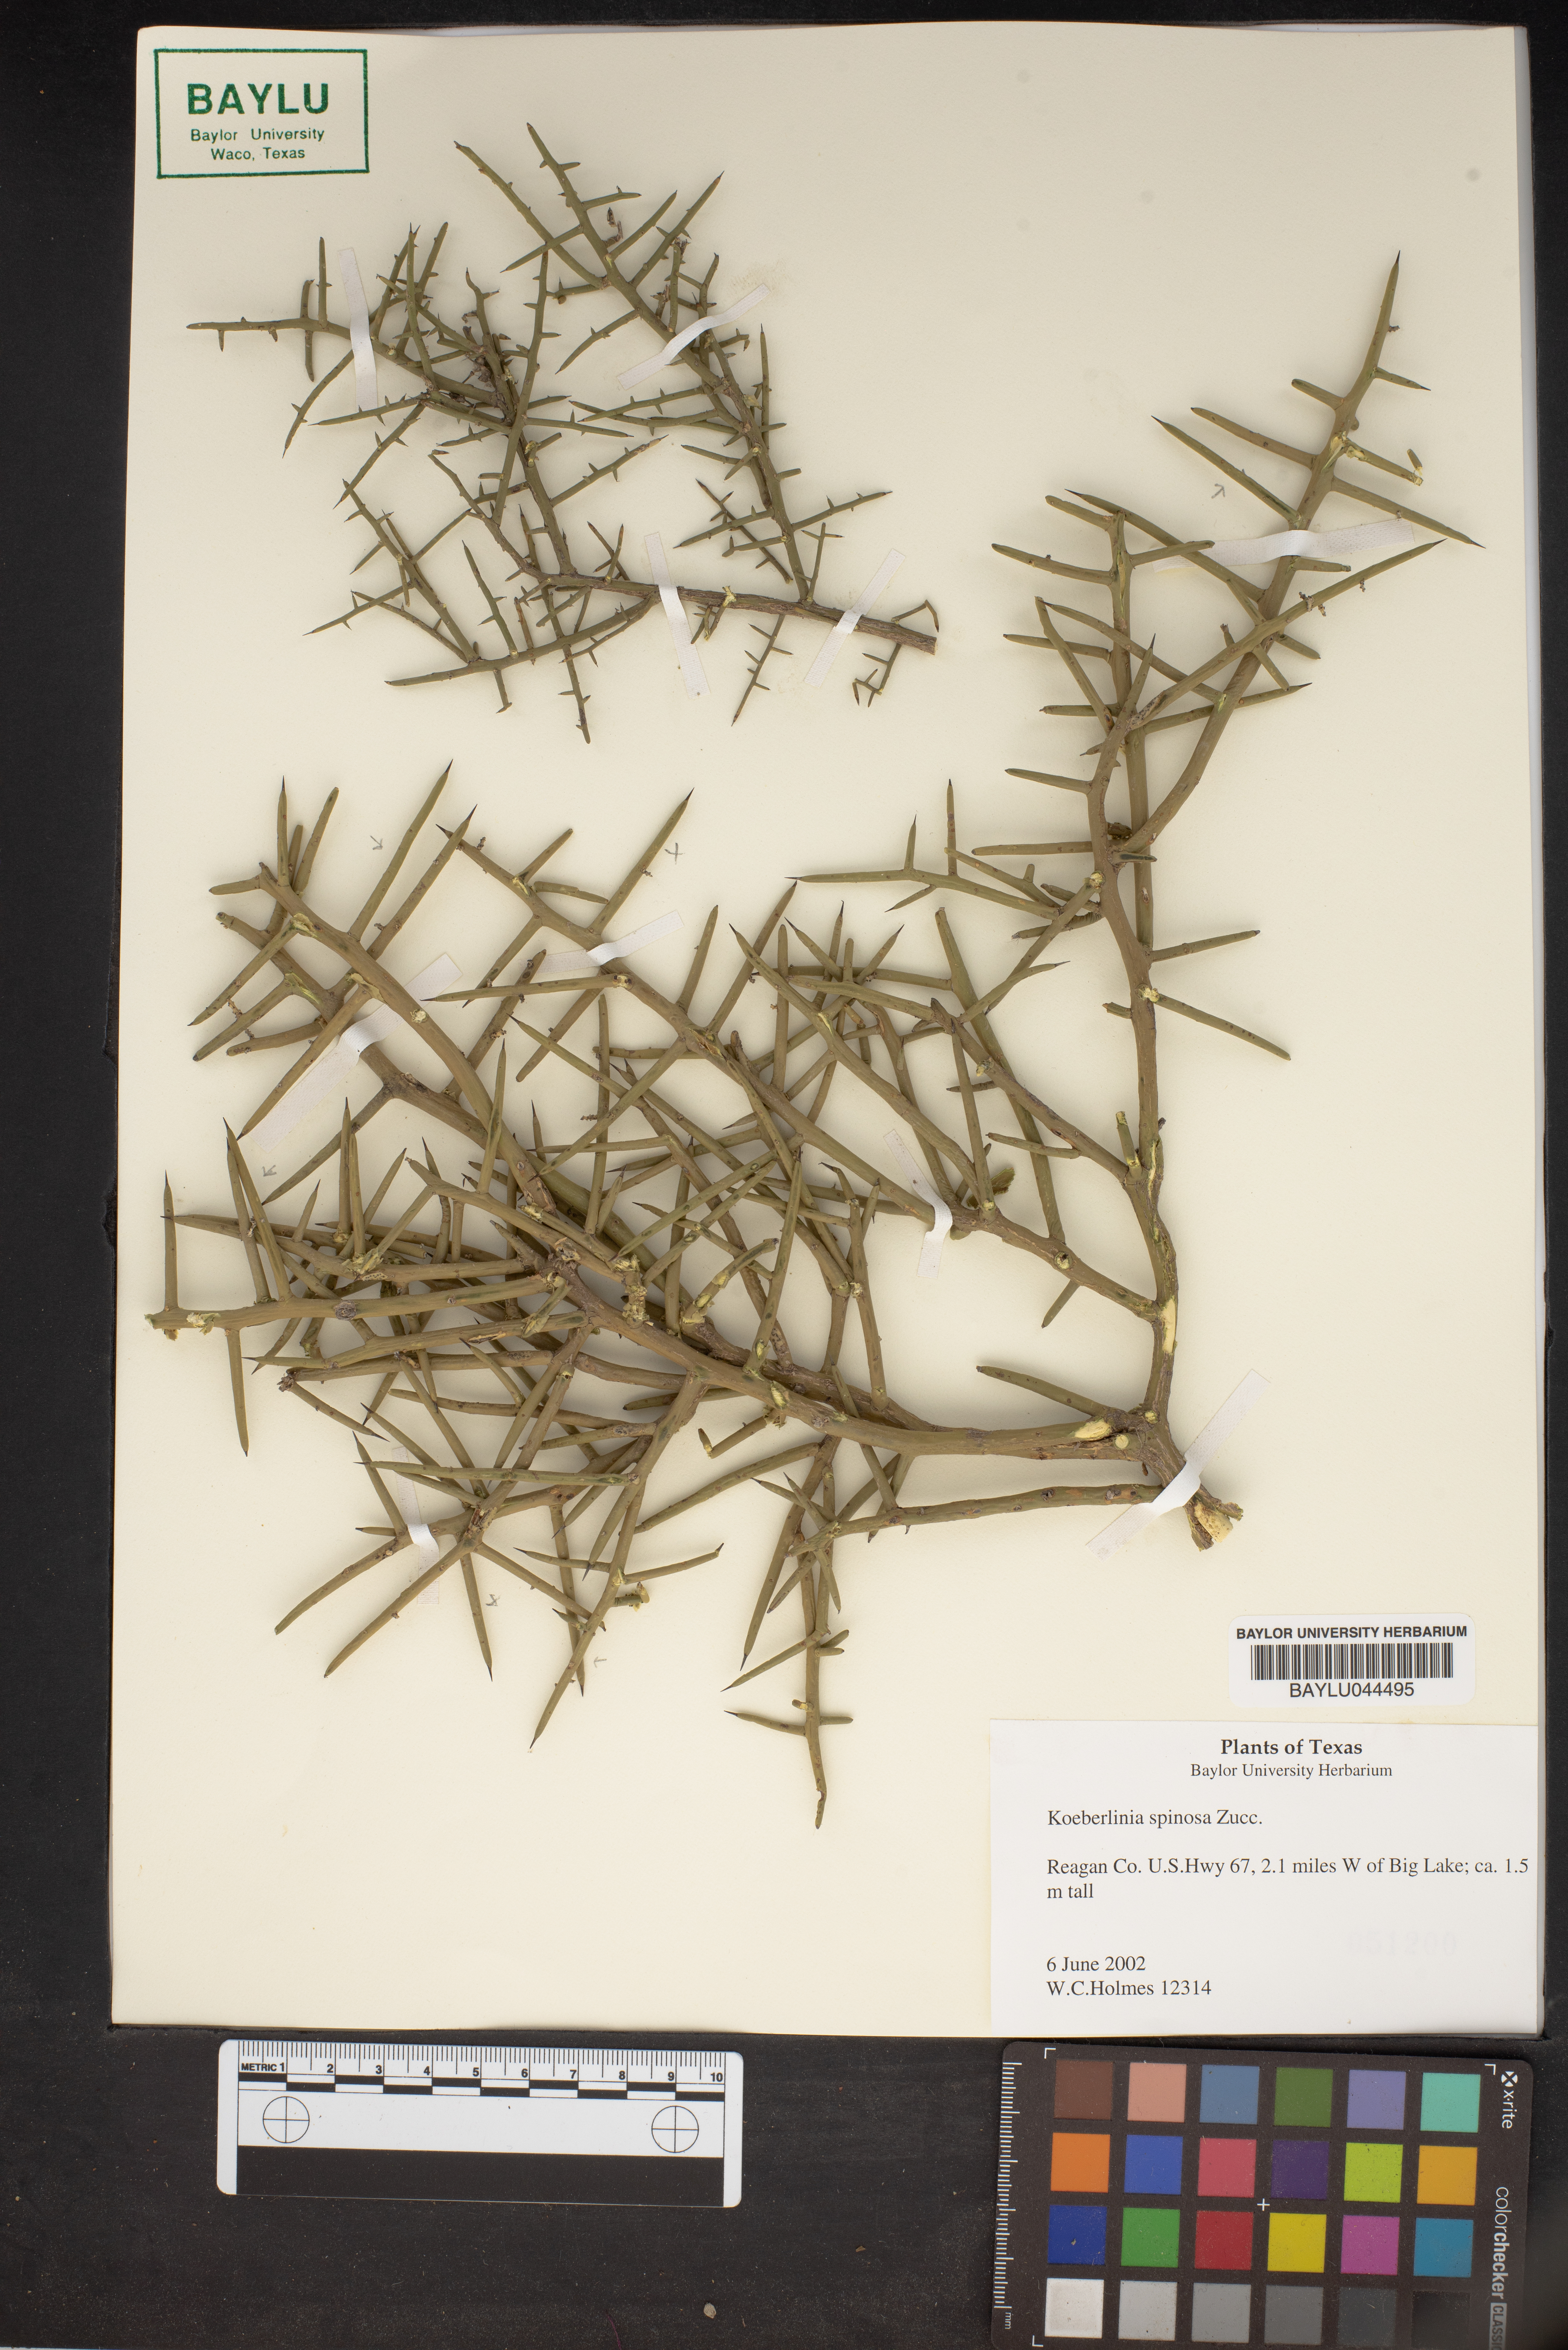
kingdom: Plantae
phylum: Tracheophyta
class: Magnoliopsida
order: Brassicales
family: Koeberliniaceae
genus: Koeberlinia
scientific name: Koeberlinia spinosa
